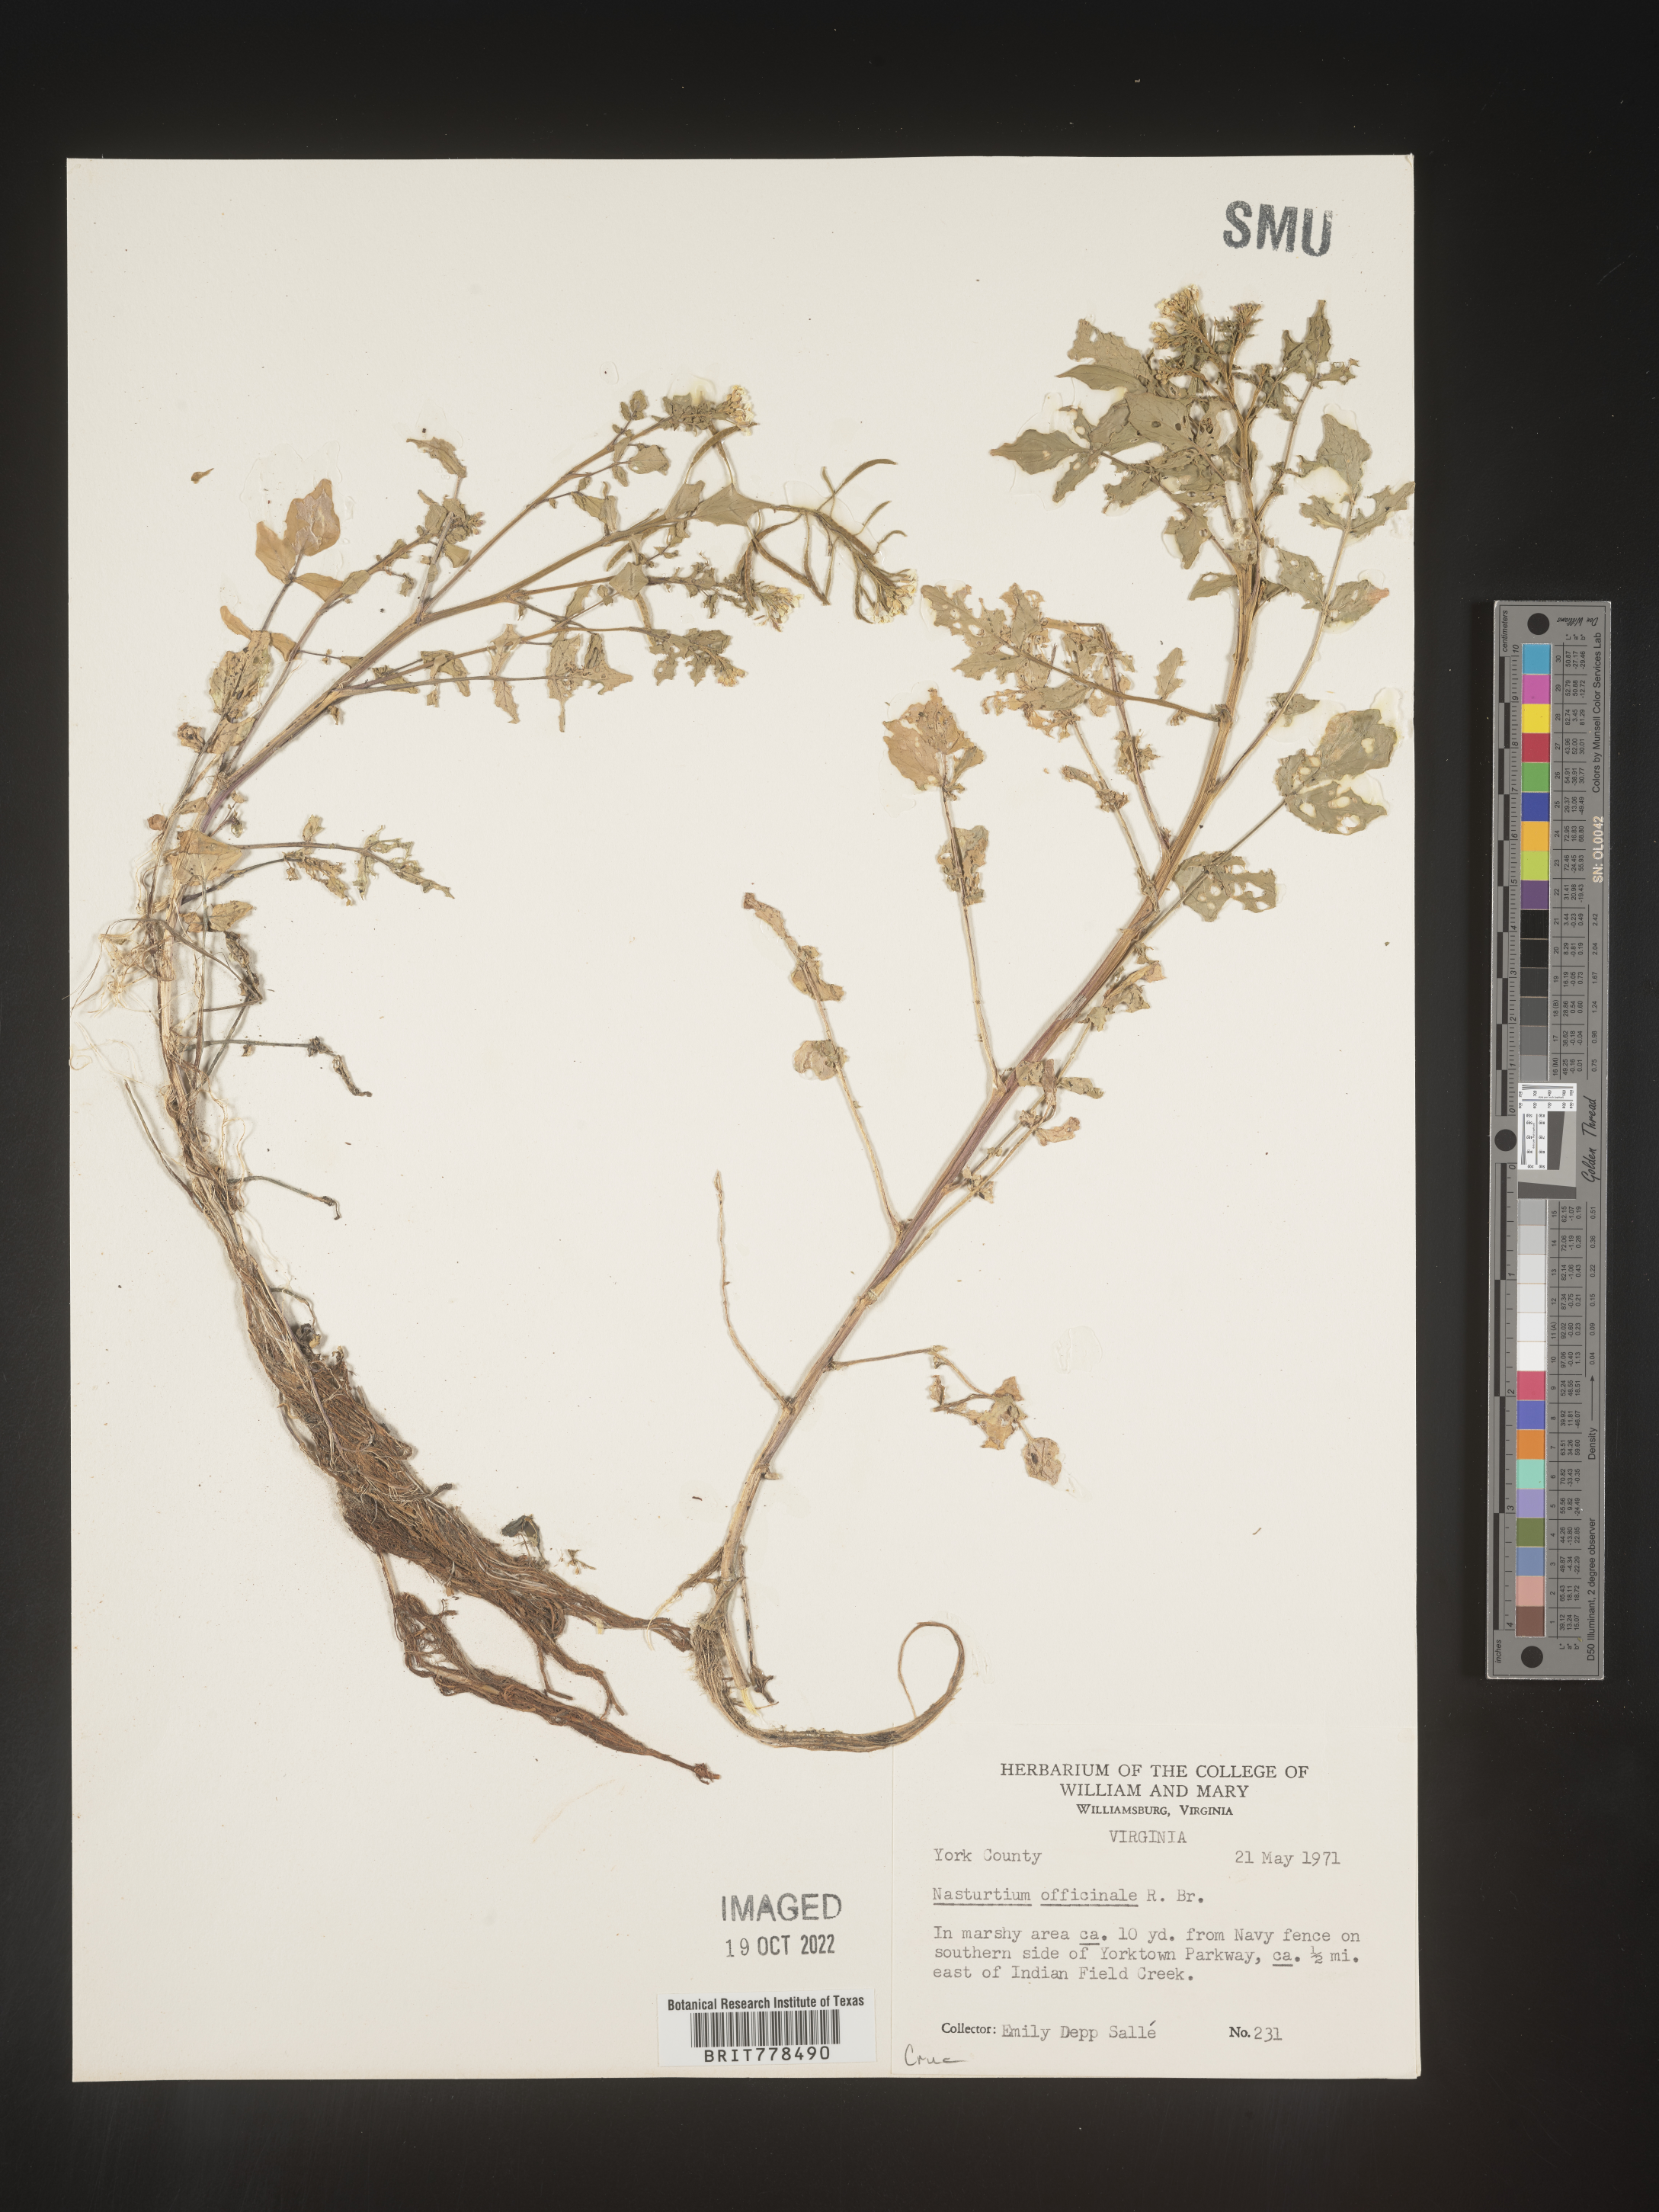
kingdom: Plantae
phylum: Tracheophyta
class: Magnoliopsida
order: Brassicales
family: Brassicaceae
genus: Nasturtium
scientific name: Nasturtium officinale
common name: Watercress
